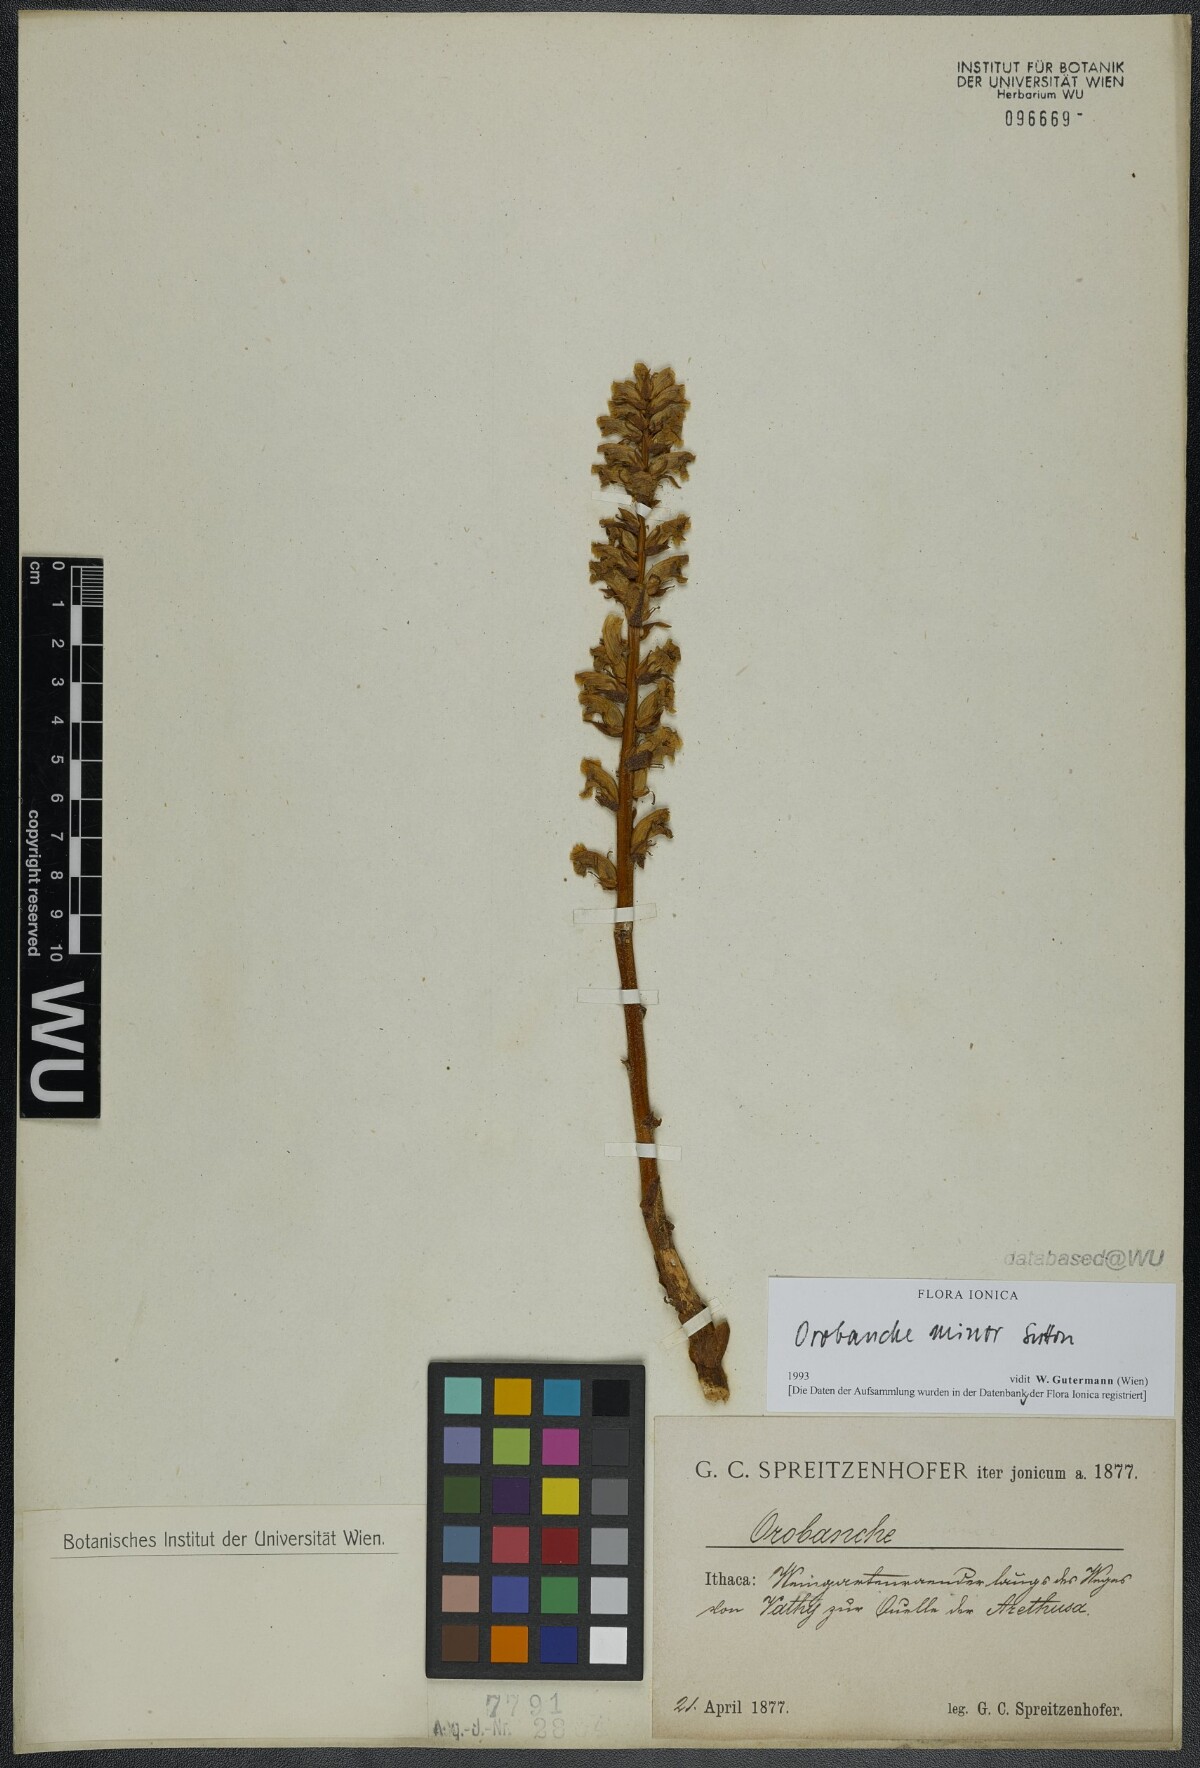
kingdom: Plantae
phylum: Tracheophyta
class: Magnoliopsida
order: Lamiales
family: Orobanchaceae
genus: Orobanche
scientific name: Orobanche grisebachii
